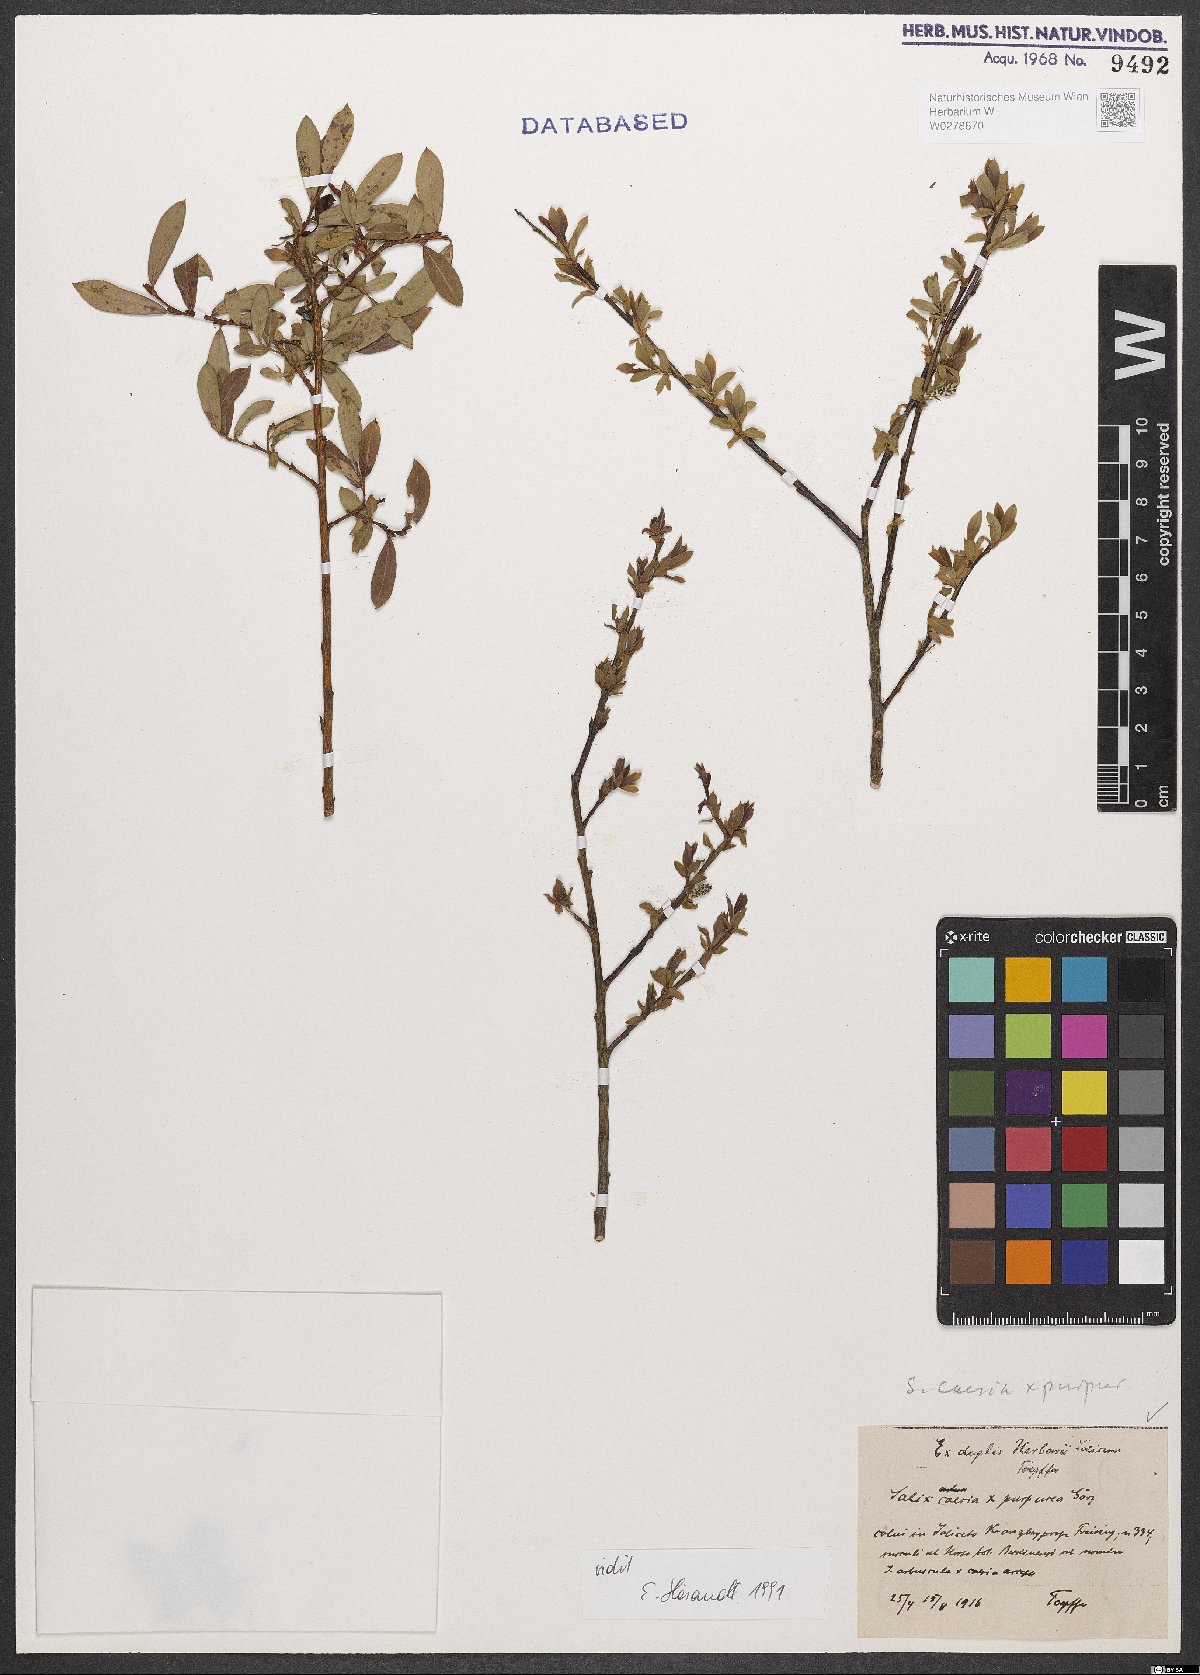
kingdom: Plantae
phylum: Tracheophyta
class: Magnoliopsida
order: Malpighiales
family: Salicaceae
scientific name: Salicaceae
